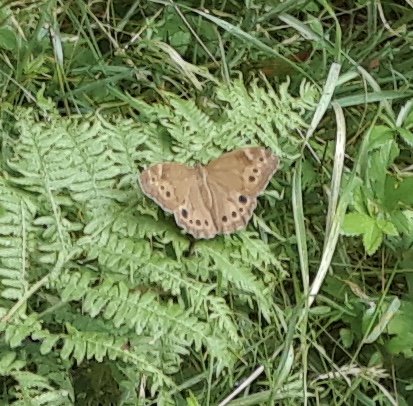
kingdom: Animalia
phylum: Arthropoda
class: Insecta
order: Lepidoptera
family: Nymphalidae
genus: Lethe
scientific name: Lethe anthedon
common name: Northern Pearly-Eye
